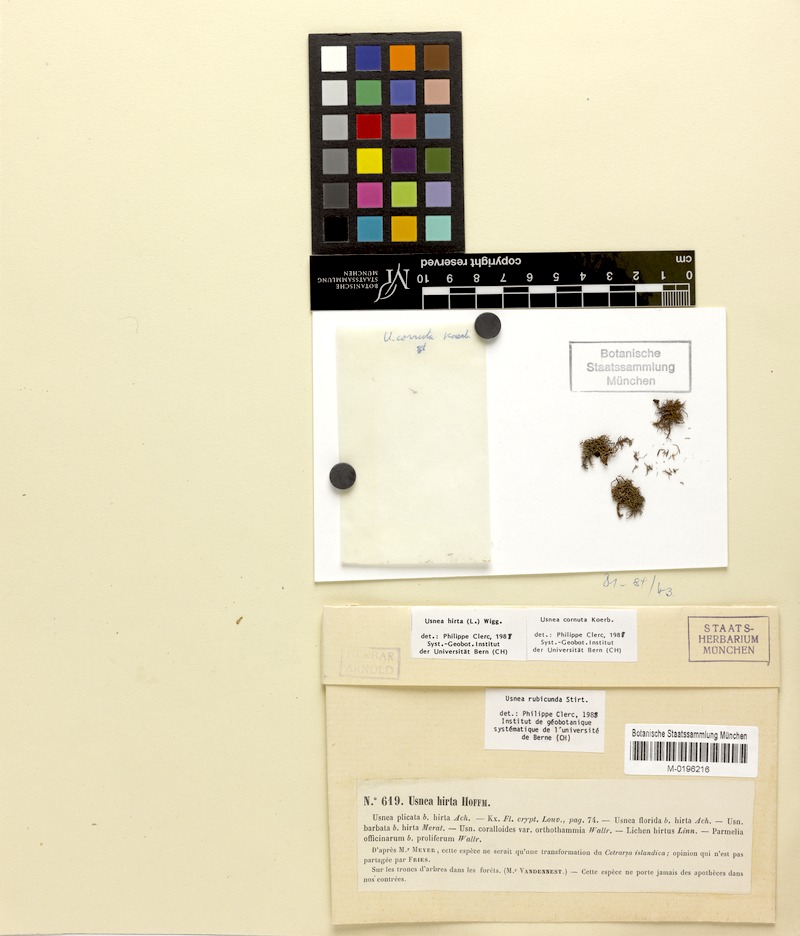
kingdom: Fungi
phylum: Ascomycota
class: Lecanoromycetes
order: Lecanorales
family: Parmeliaceae
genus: Usnea
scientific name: Usnea cornuta
